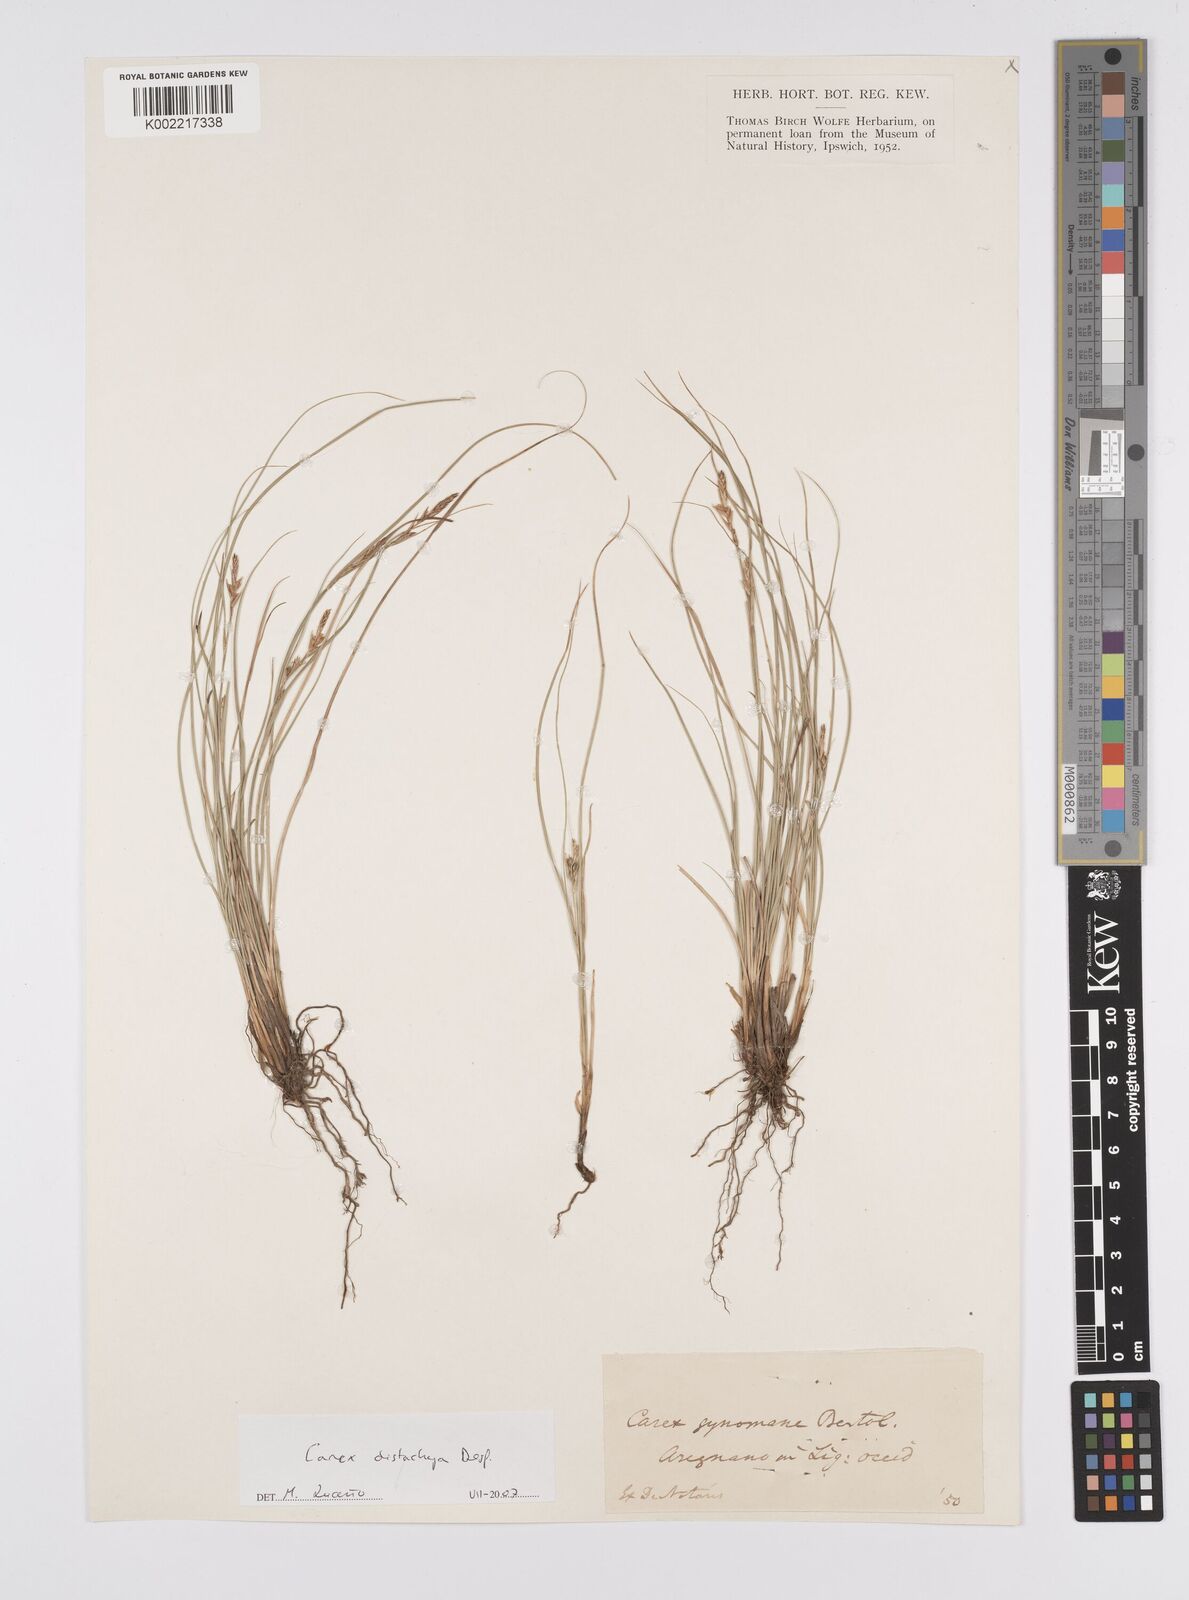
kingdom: Plantae
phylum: Tracheophyta
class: Liliopsida
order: Poales
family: Cyperaceae
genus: Carex
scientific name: Carex distachya
